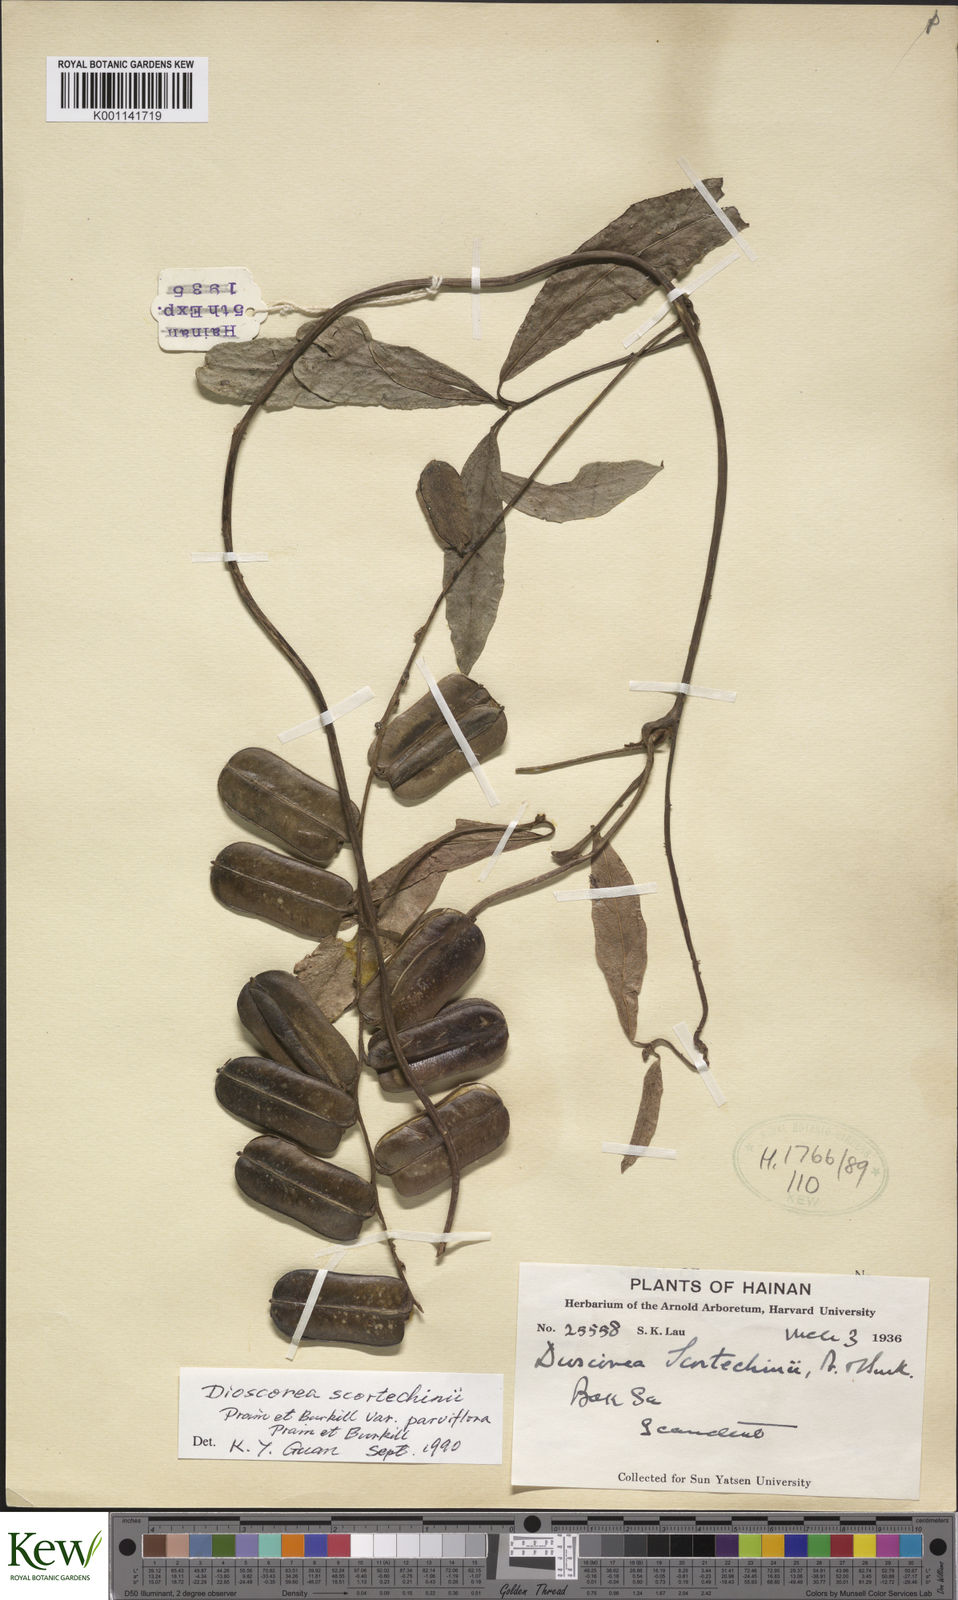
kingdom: Plantae
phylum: Tracheophyta
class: Liliopsida
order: Dioscoreales
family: Dioscoreaceae
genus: Dioscorea
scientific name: Dioscorea scortechinii
